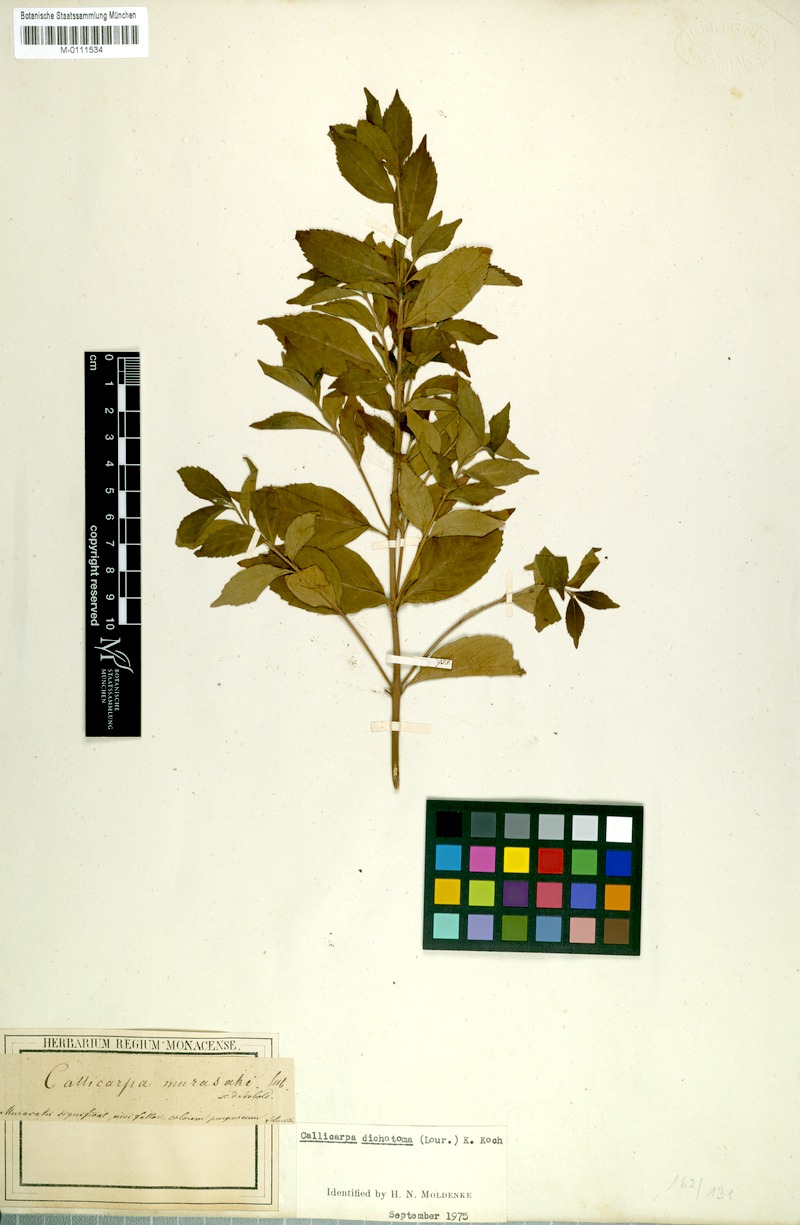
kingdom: Plantae
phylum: Tracheophyta
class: Magnoliopsida
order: Lamiales
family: Lamiaceae
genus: Callicarpa
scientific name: Callicarpa japonica
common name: Japanese beauty-berry
